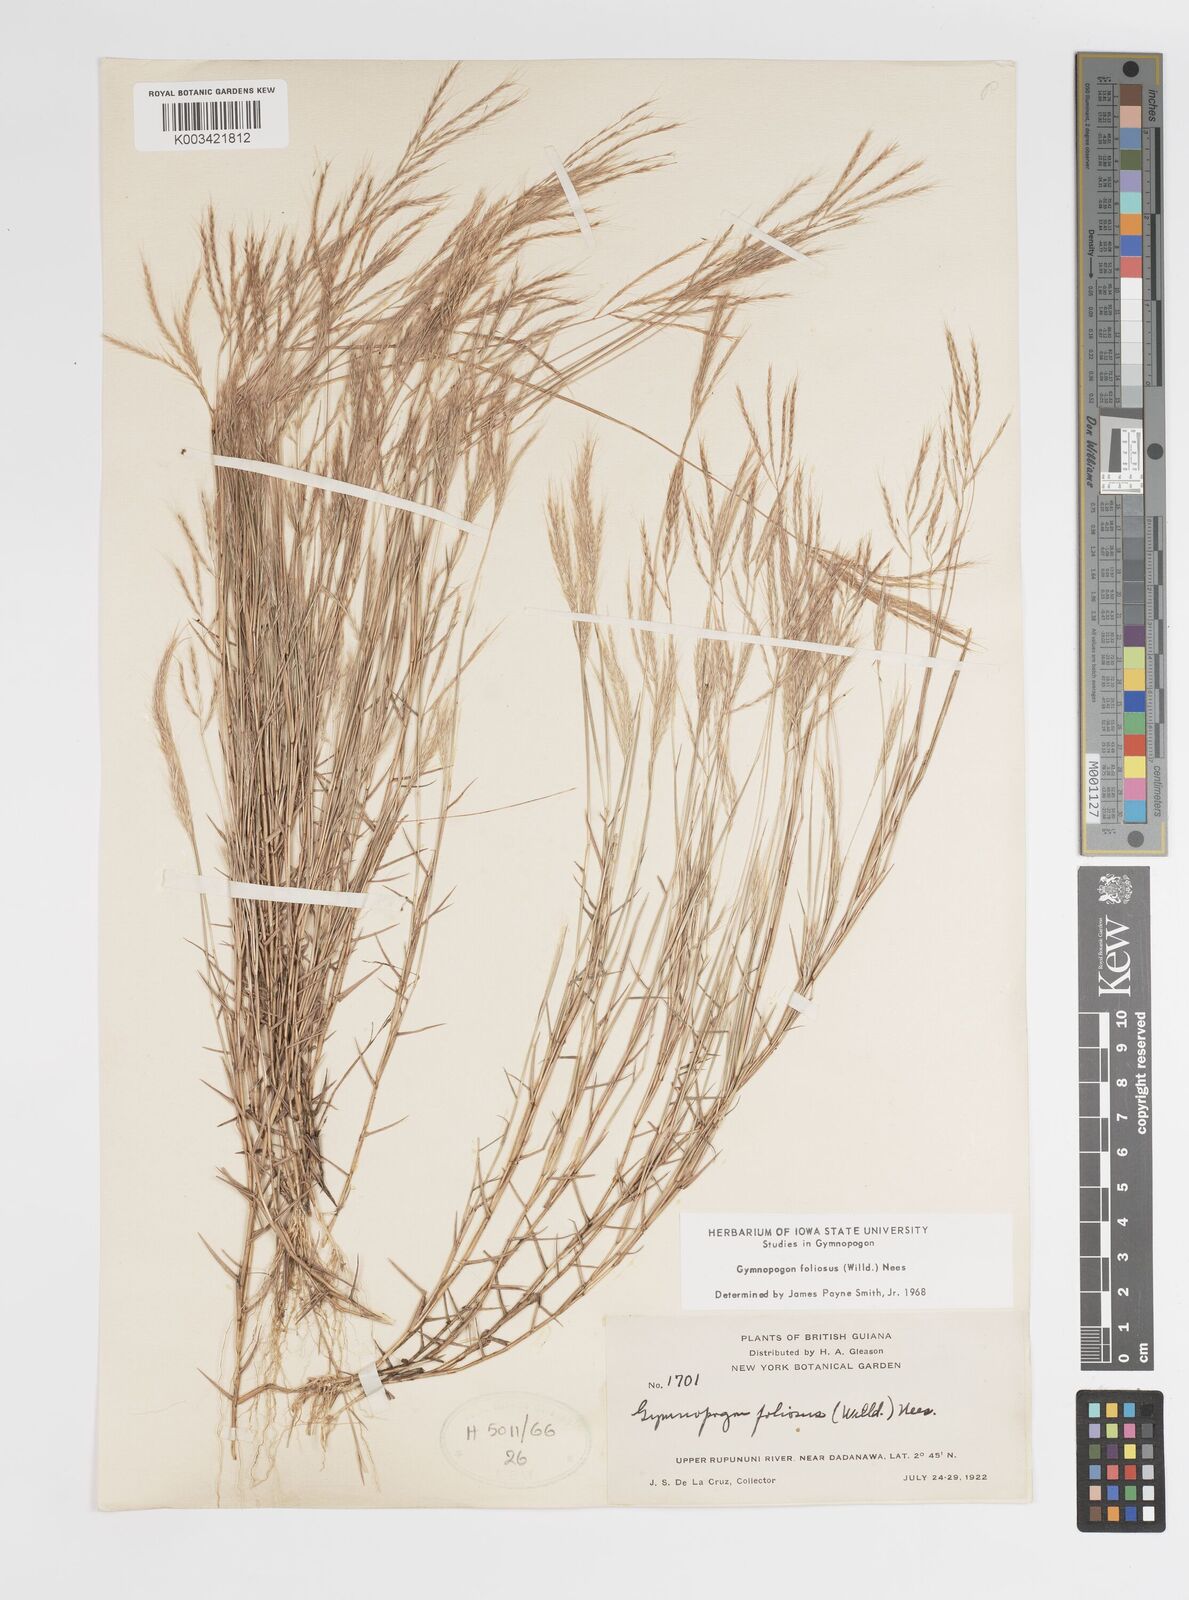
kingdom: Plantae
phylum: Tracheophyta
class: Liliopsida
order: Poales
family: Poaceae
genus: Gymnopogon
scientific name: Gymnopogon foliosus
